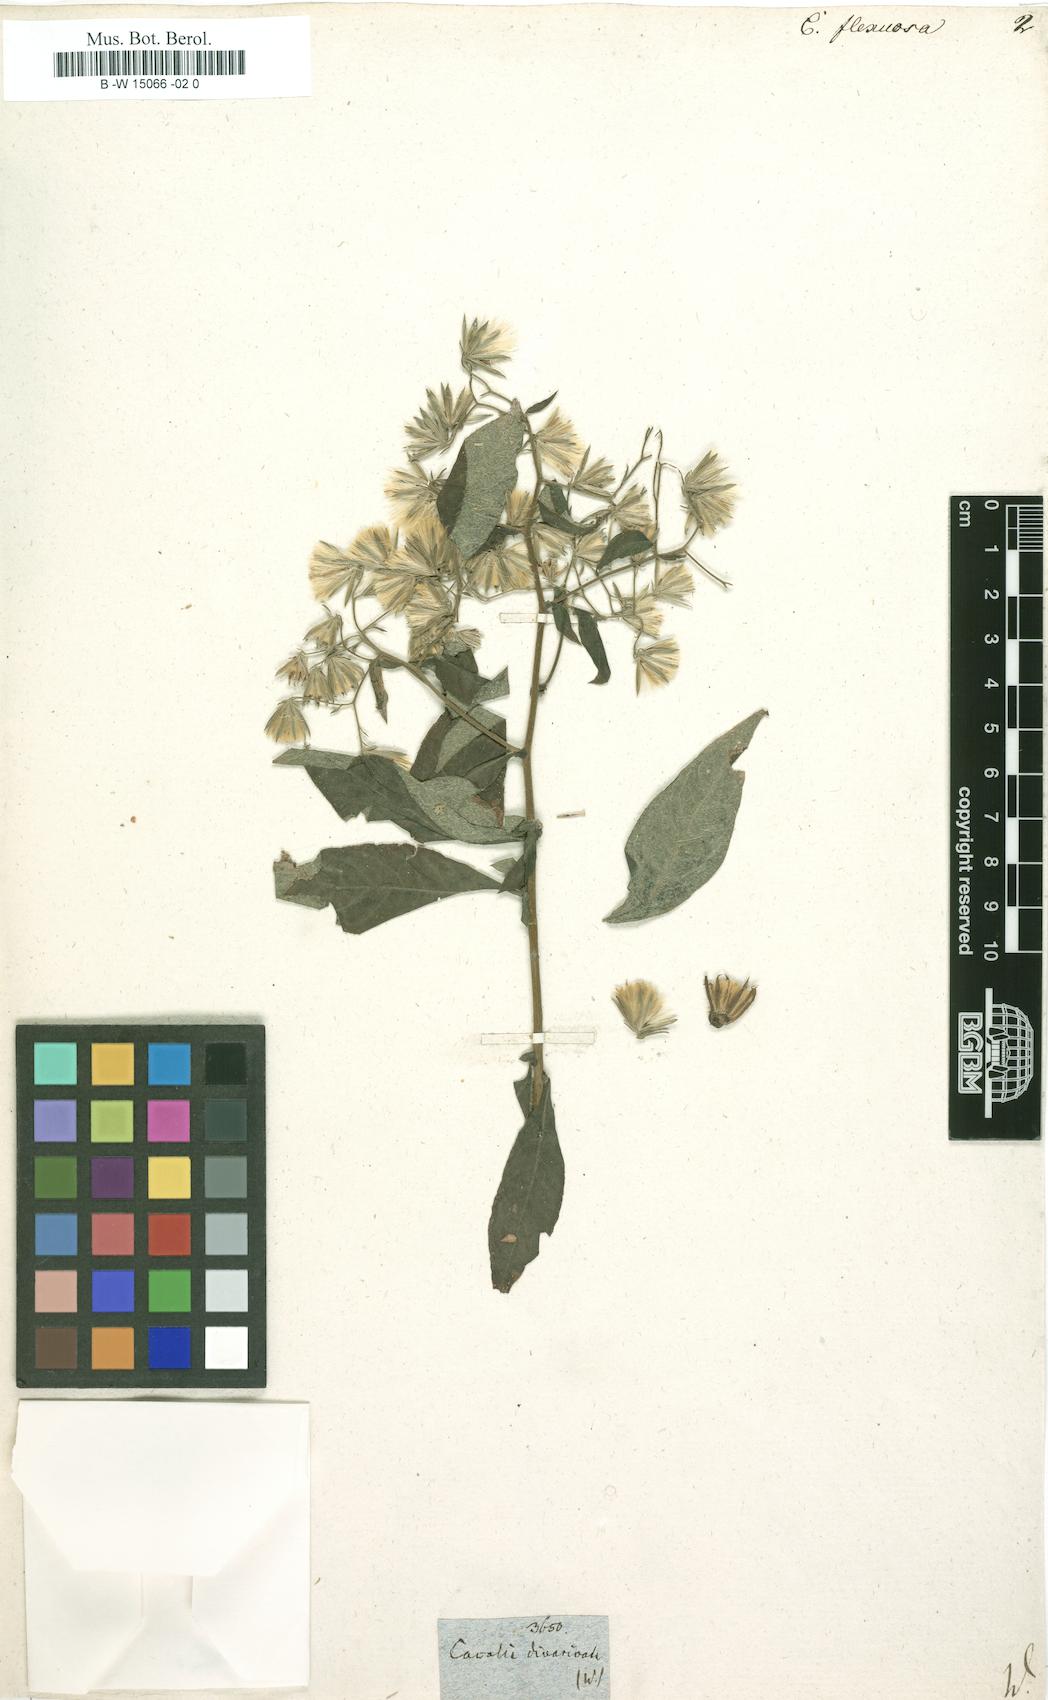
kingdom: Plantae
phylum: Tracheophyta
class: Magnoliopsida
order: Asterales
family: Asteraceae
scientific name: Asteraceae
